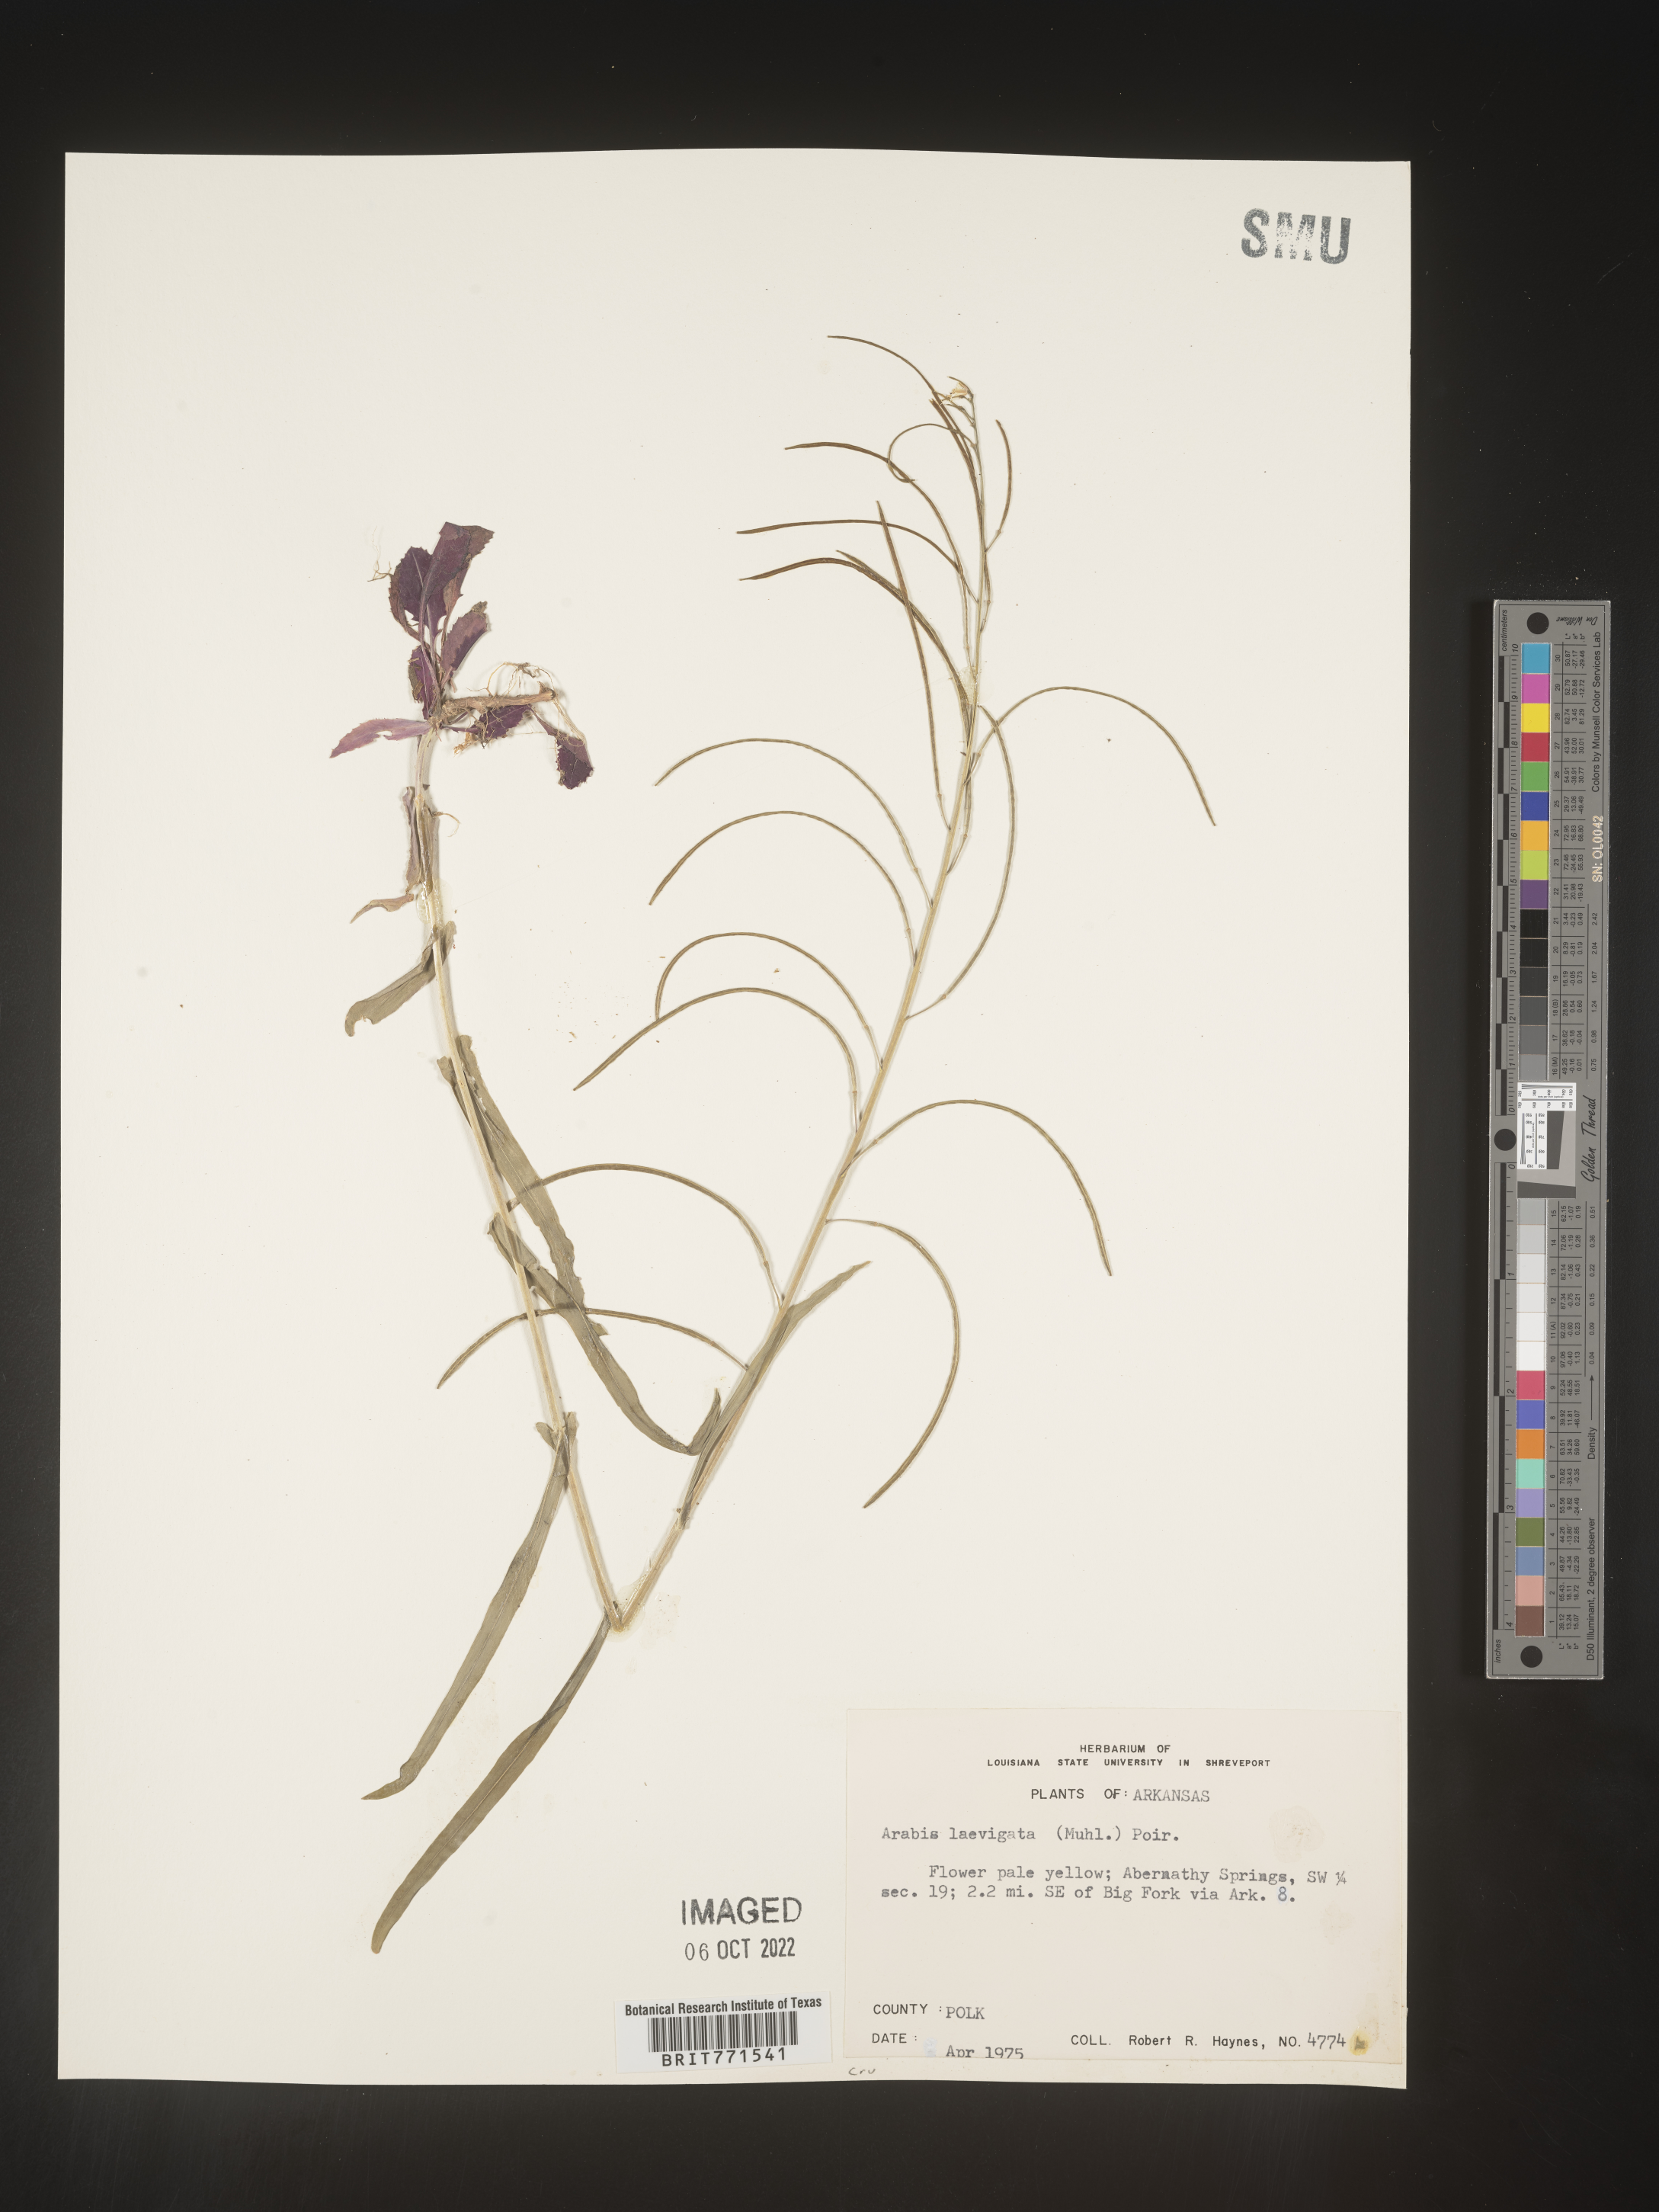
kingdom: Plantae
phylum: Tracheophyta
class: Magnoliopsida
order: Brassicales
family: Brassicaceae
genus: Arabis
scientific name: Arabis laevigata
